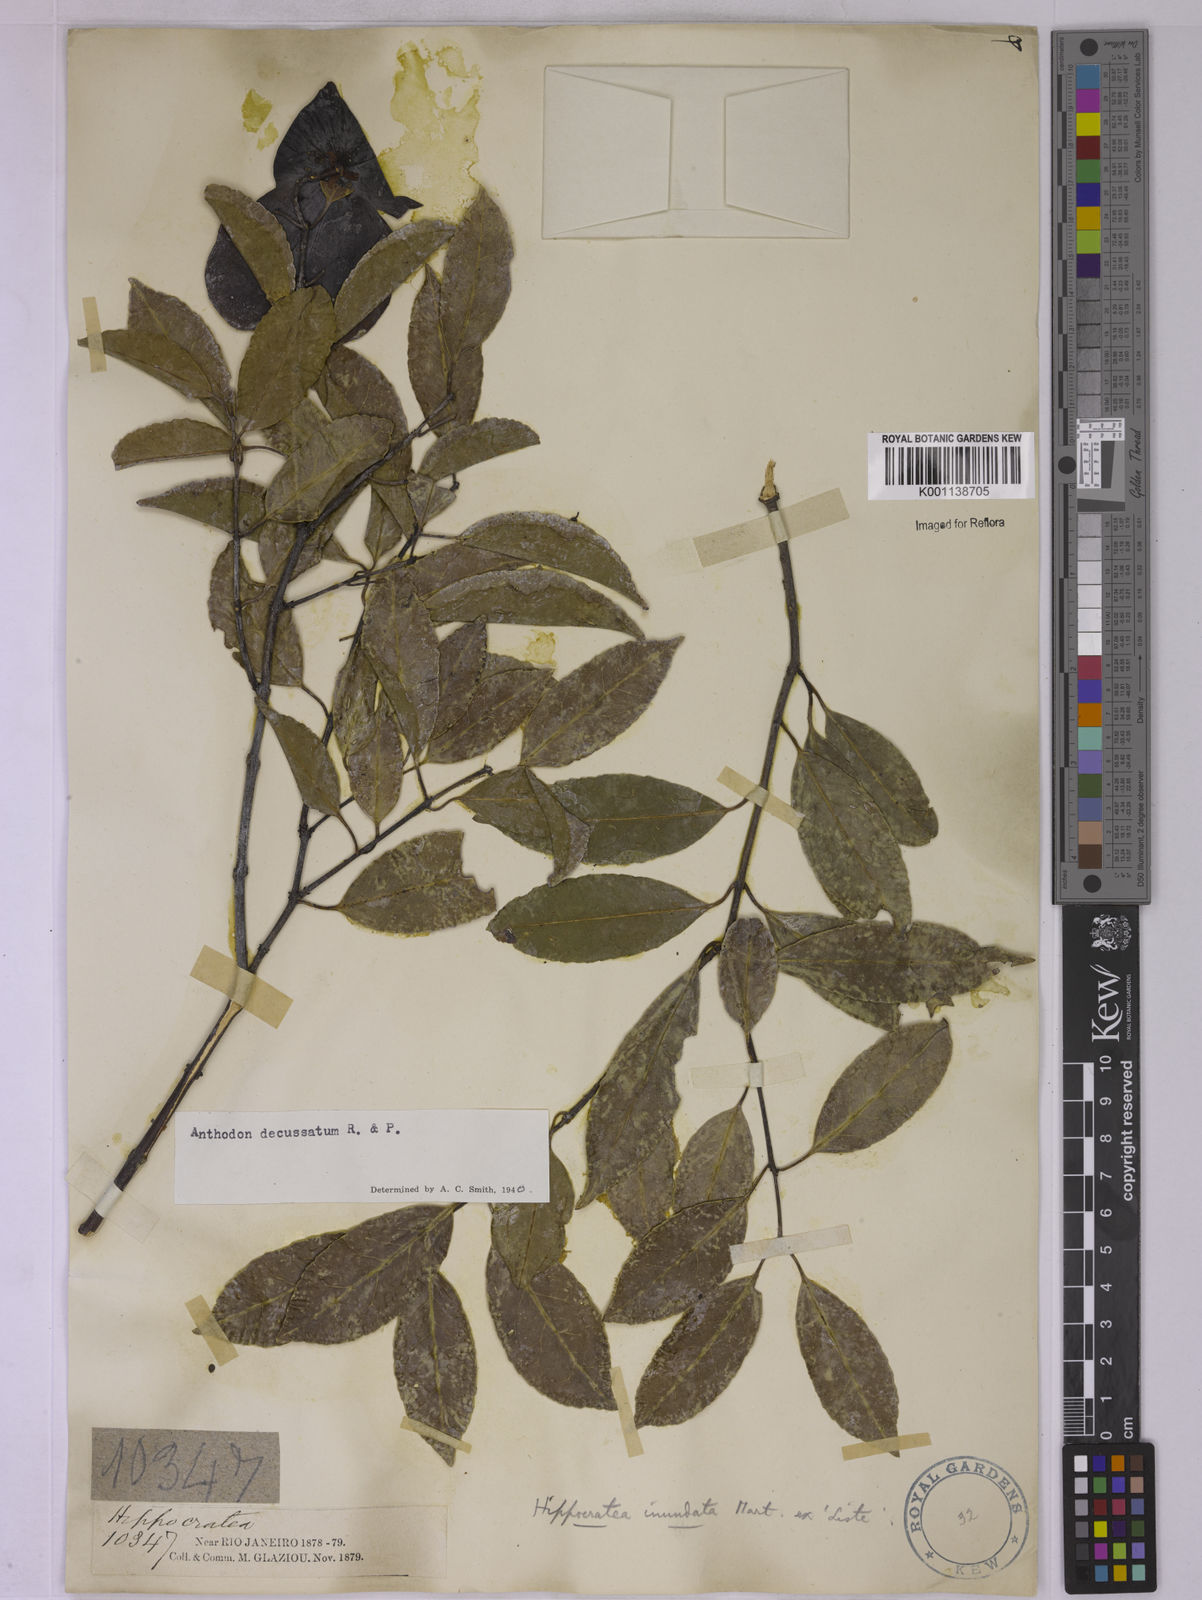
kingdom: Plantae
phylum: Tracheophyta
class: Magnoliopsida
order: Celastrales
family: Celastraceae
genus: Anthodon
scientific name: Anthodon decussatum
